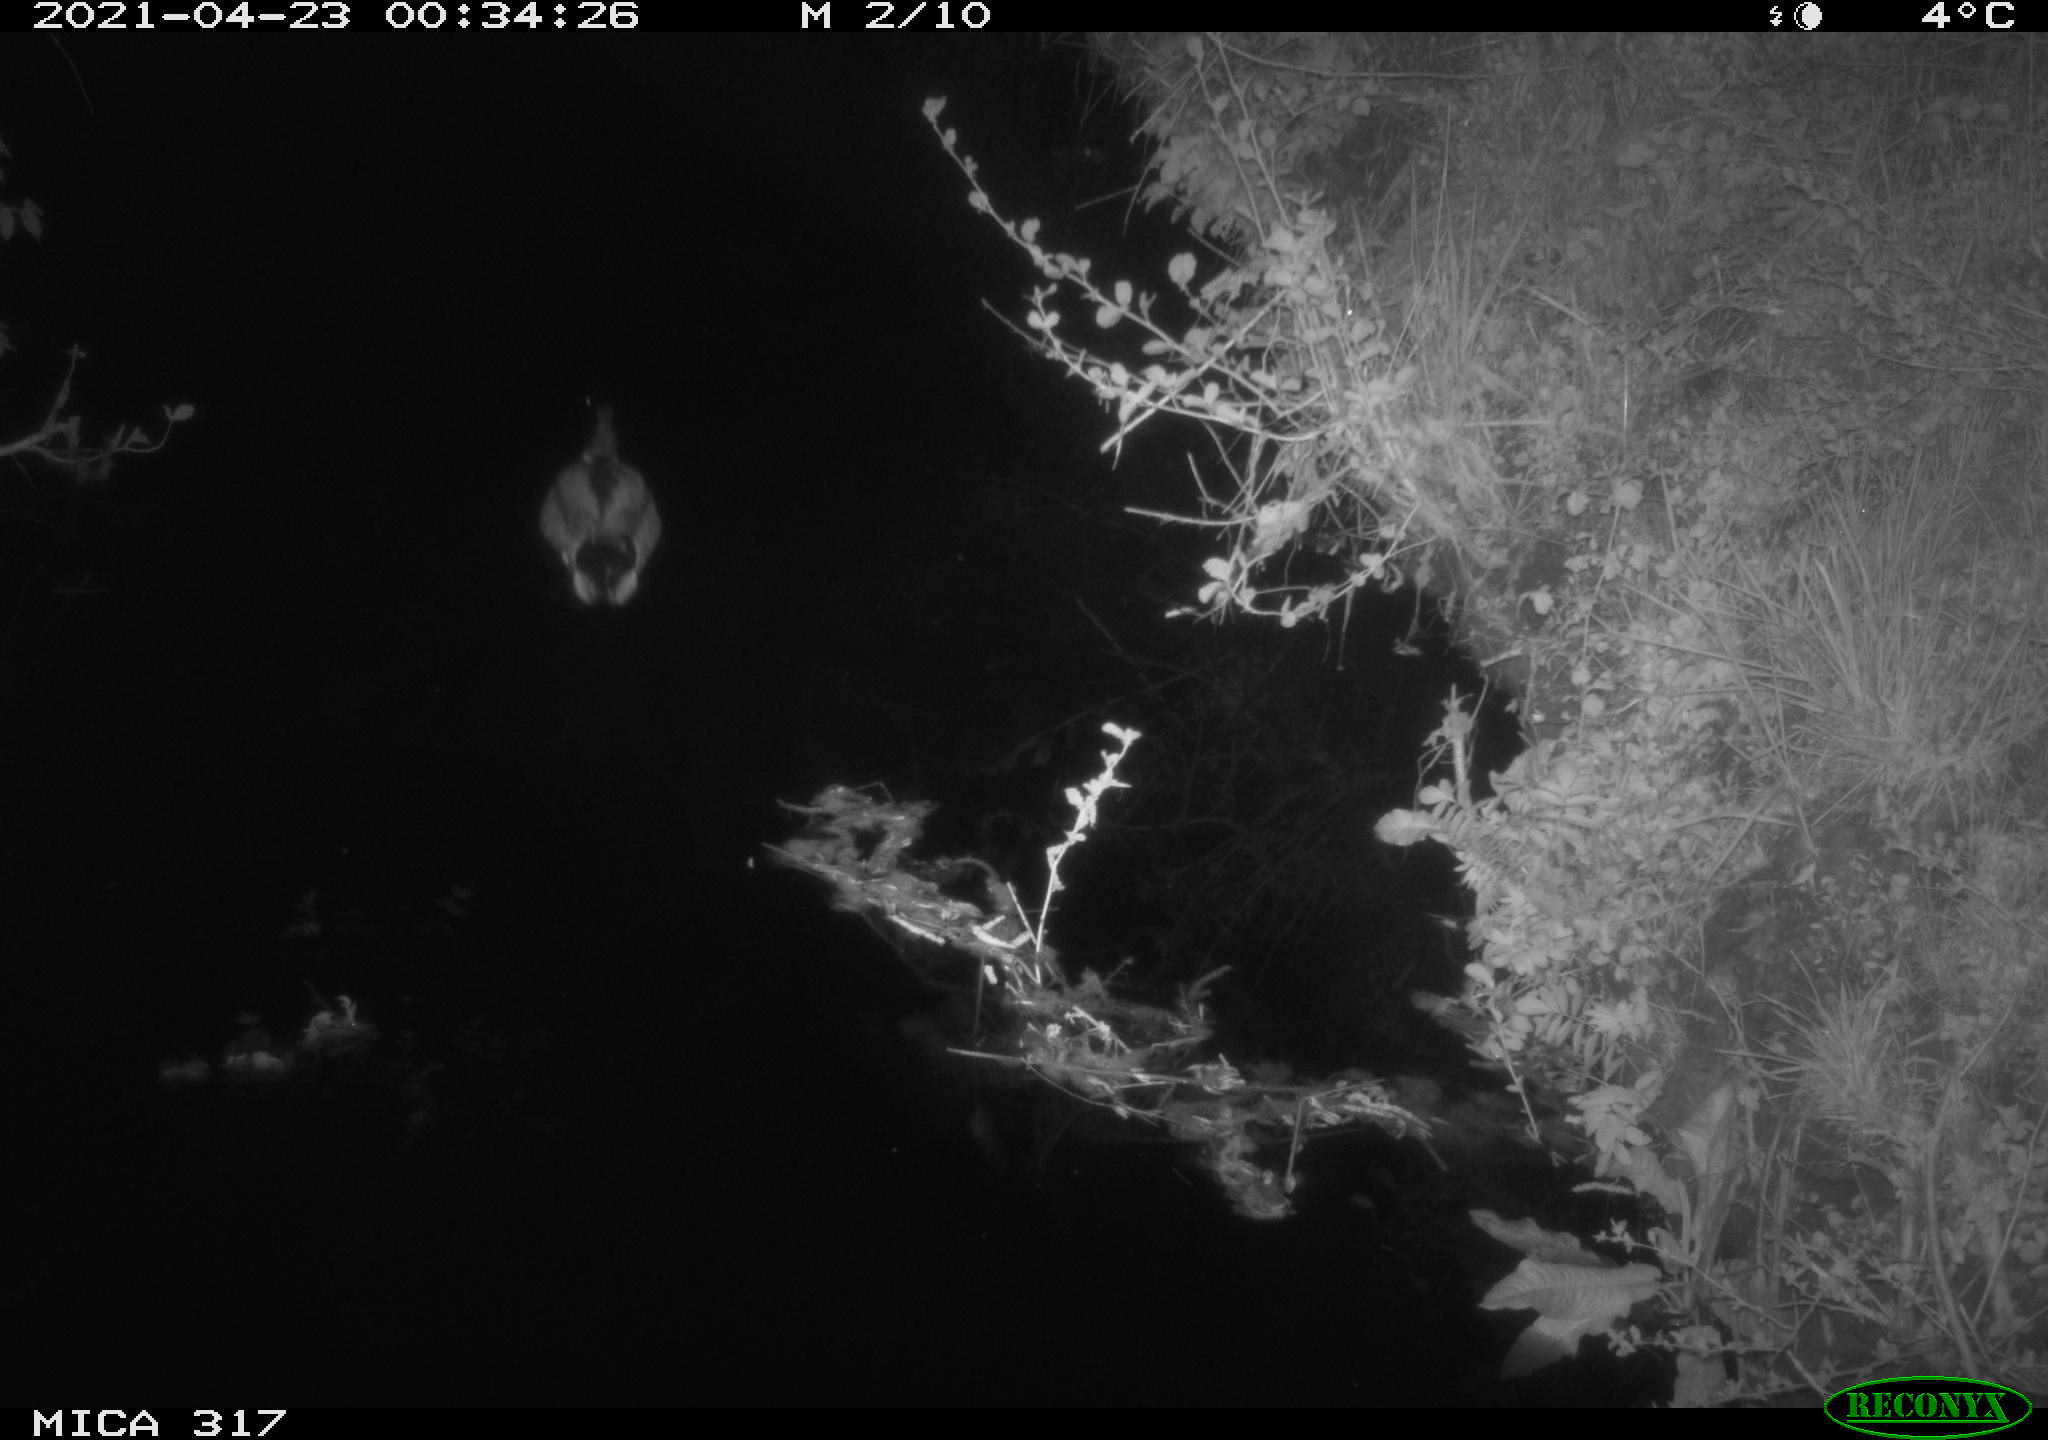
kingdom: Animalia
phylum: Chordata
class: Aves
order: Anseriformes
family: Anatidae
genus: Anas
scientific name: Anas
